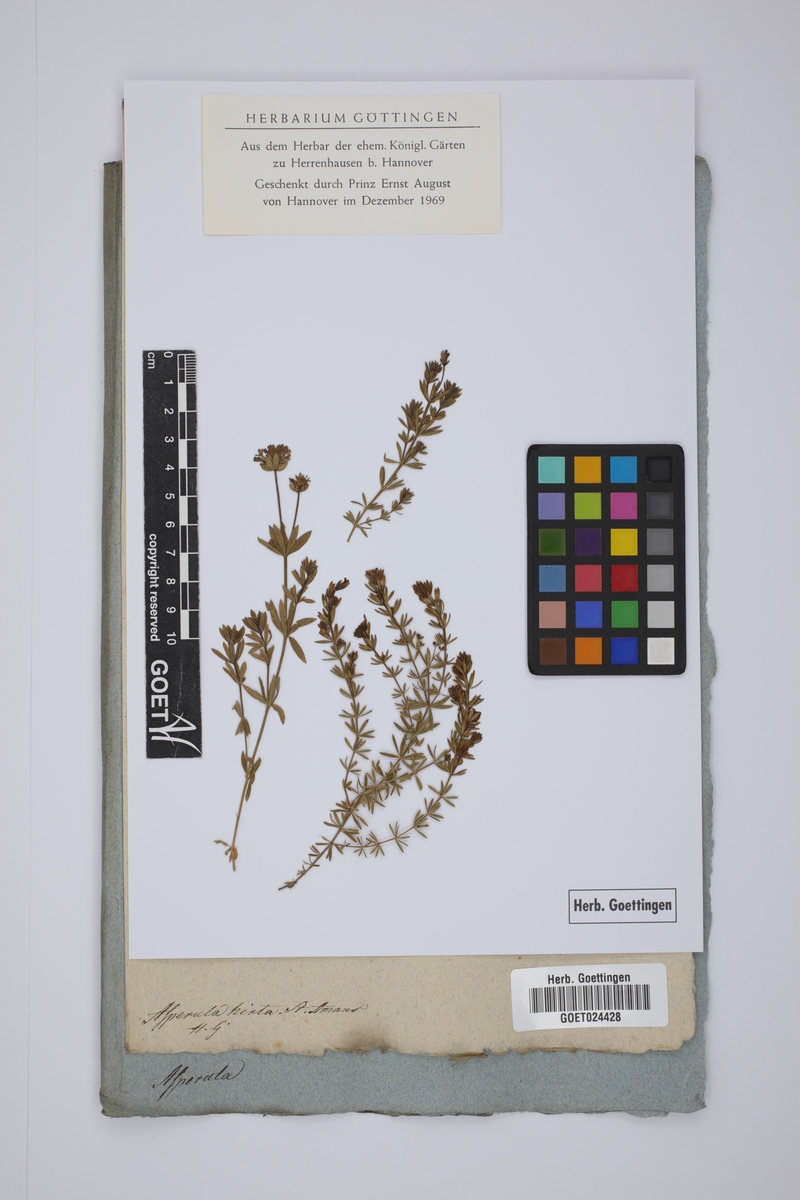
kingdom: Plantae
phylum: Tracheophyta
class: Magnoliopsida
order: Gentianales
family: Rubiaceae
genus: Hexaphylla
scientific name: Hexaphylla hirta
